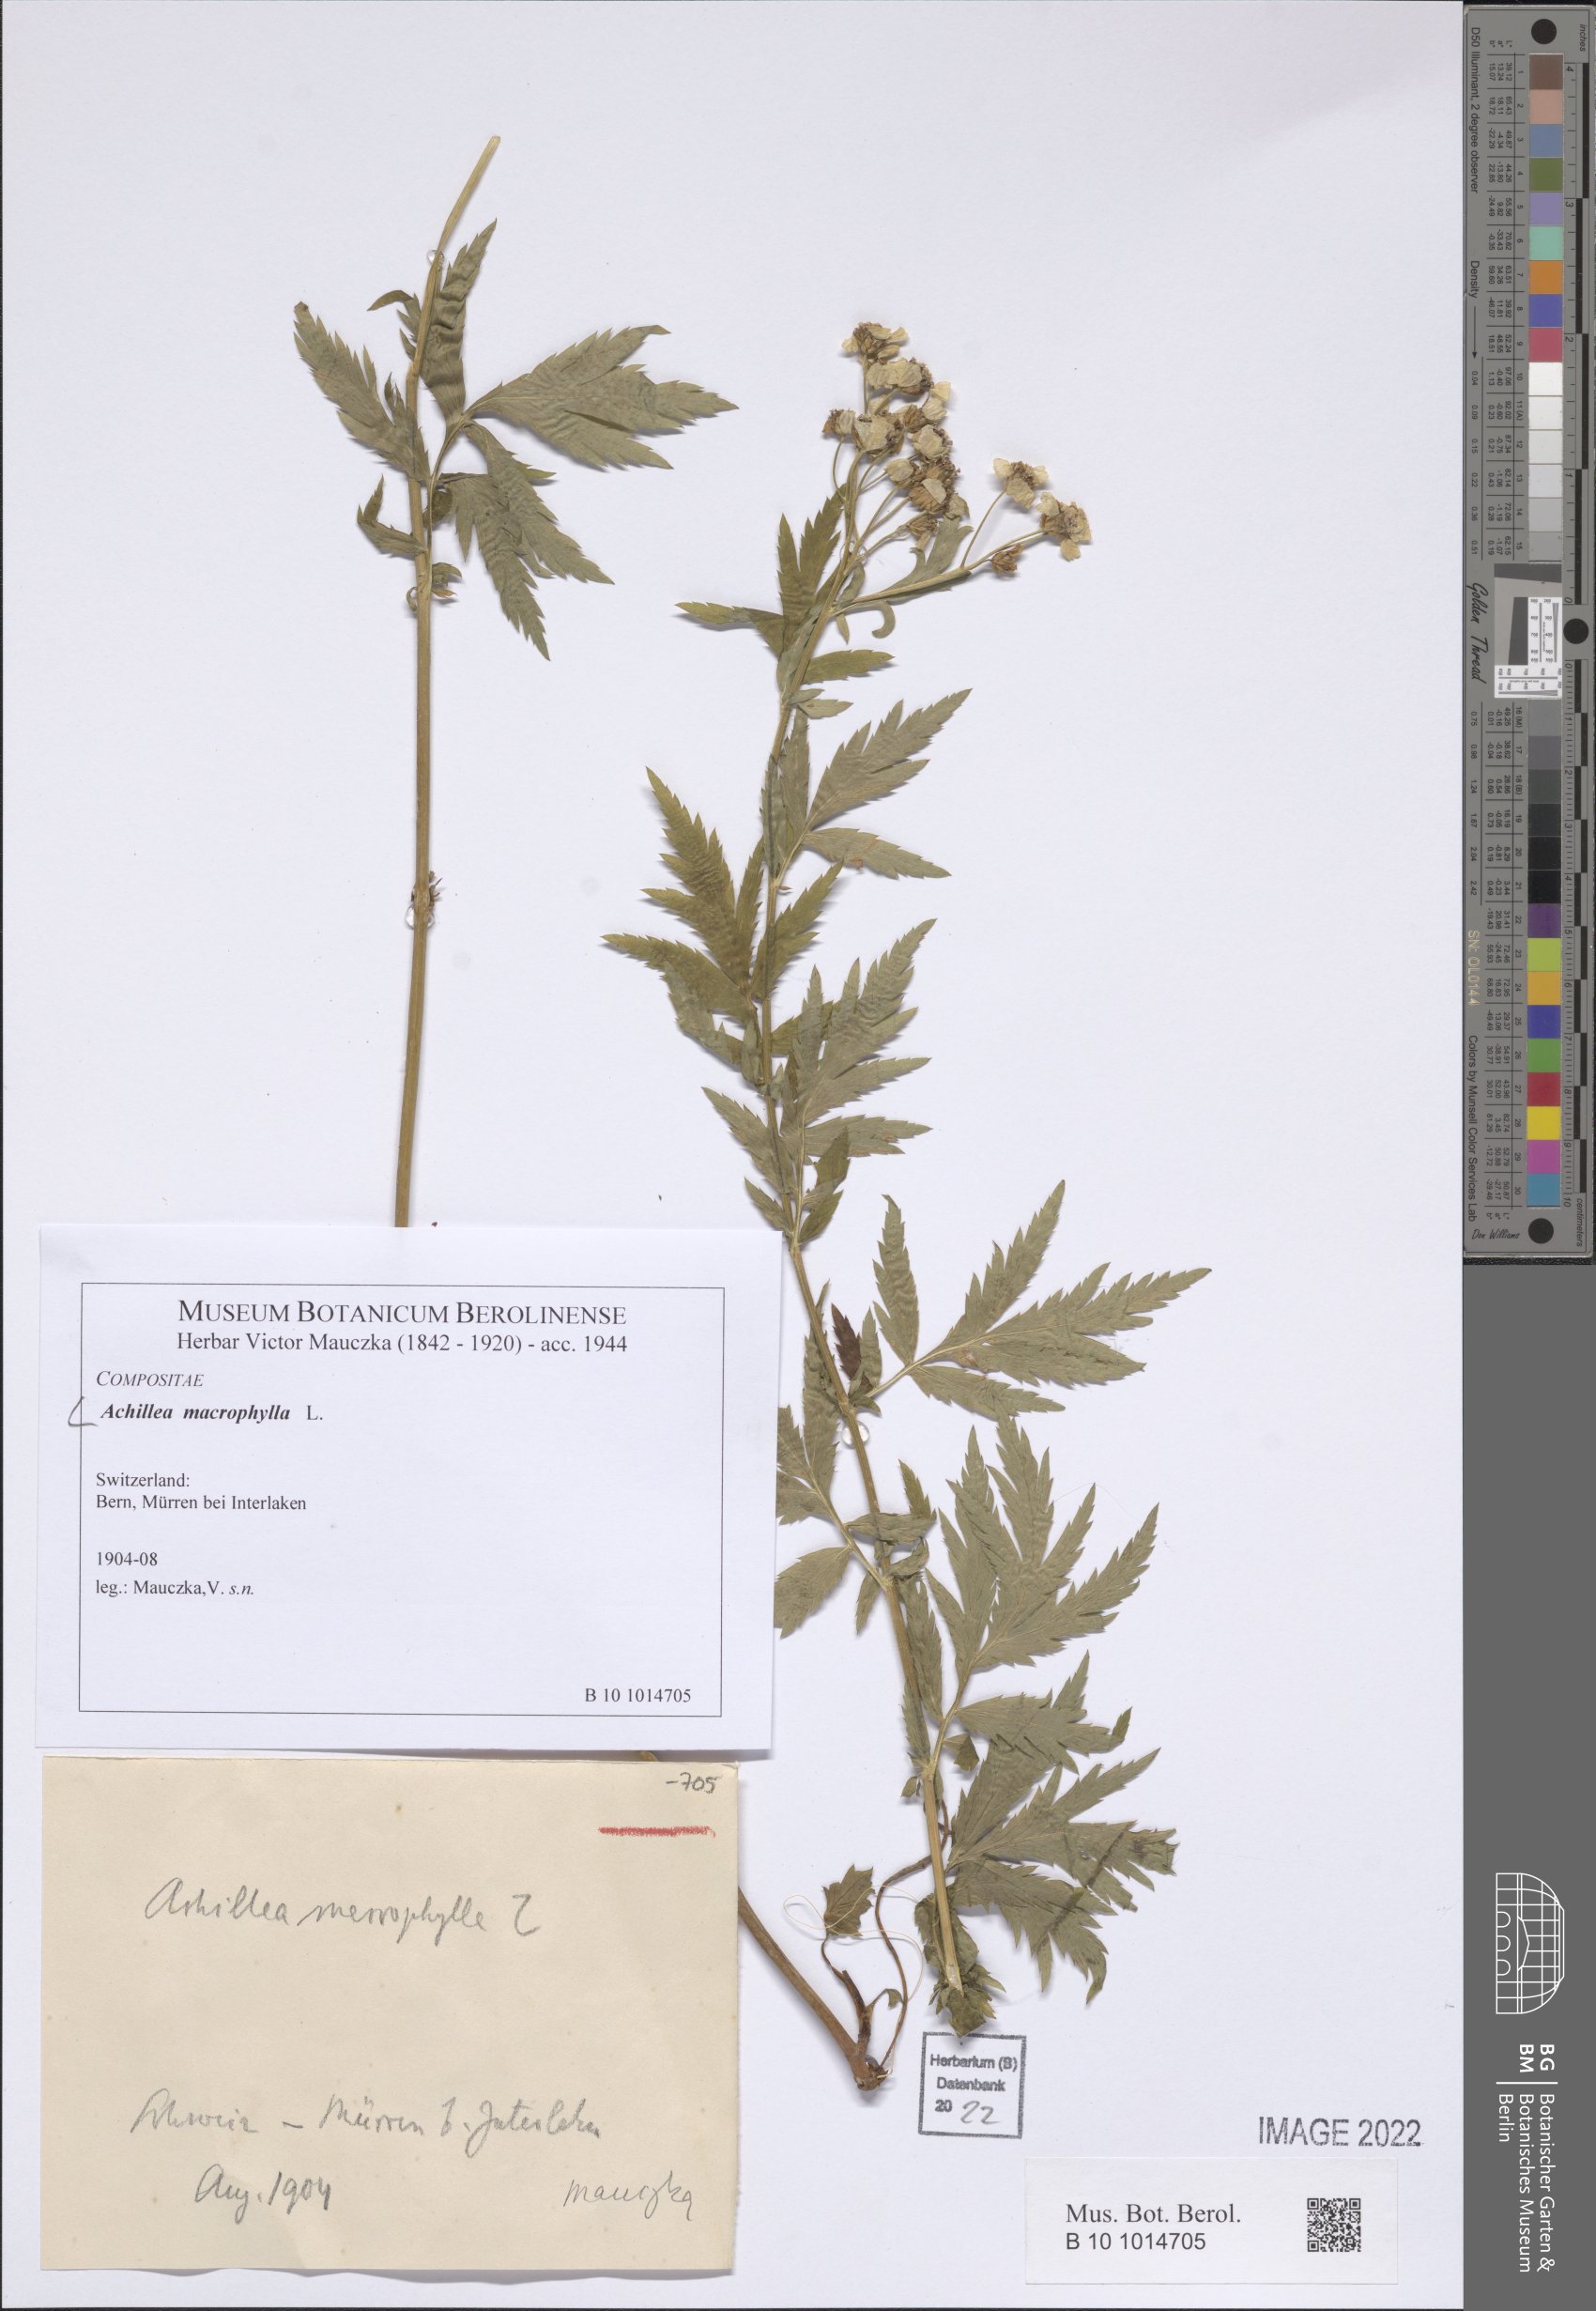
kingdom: Plantae
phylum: Tracheophyta
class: Magnoliopsida
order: Asterales
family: Asteraceae
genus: Achillea
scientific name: Achillea macrophylla
